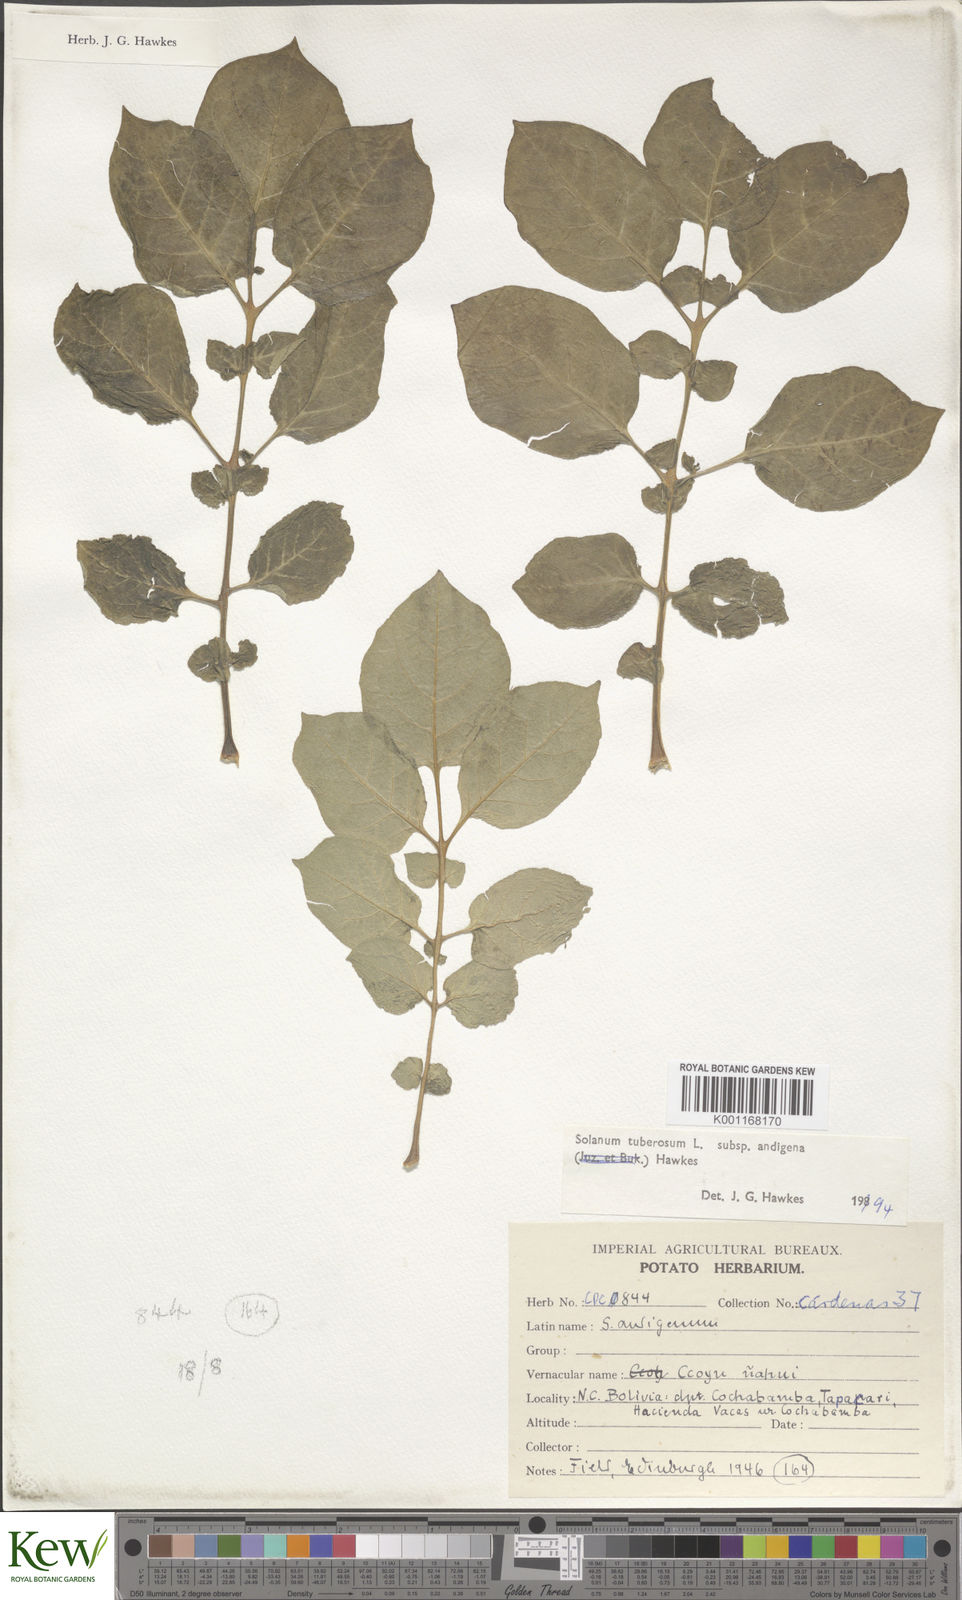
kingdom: Plantae
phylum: Tracheophyta
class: Magnoliopsida
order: Solanales
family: Solanaceae
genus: Solanum
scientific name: Solanum tuberosum
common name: Potato
